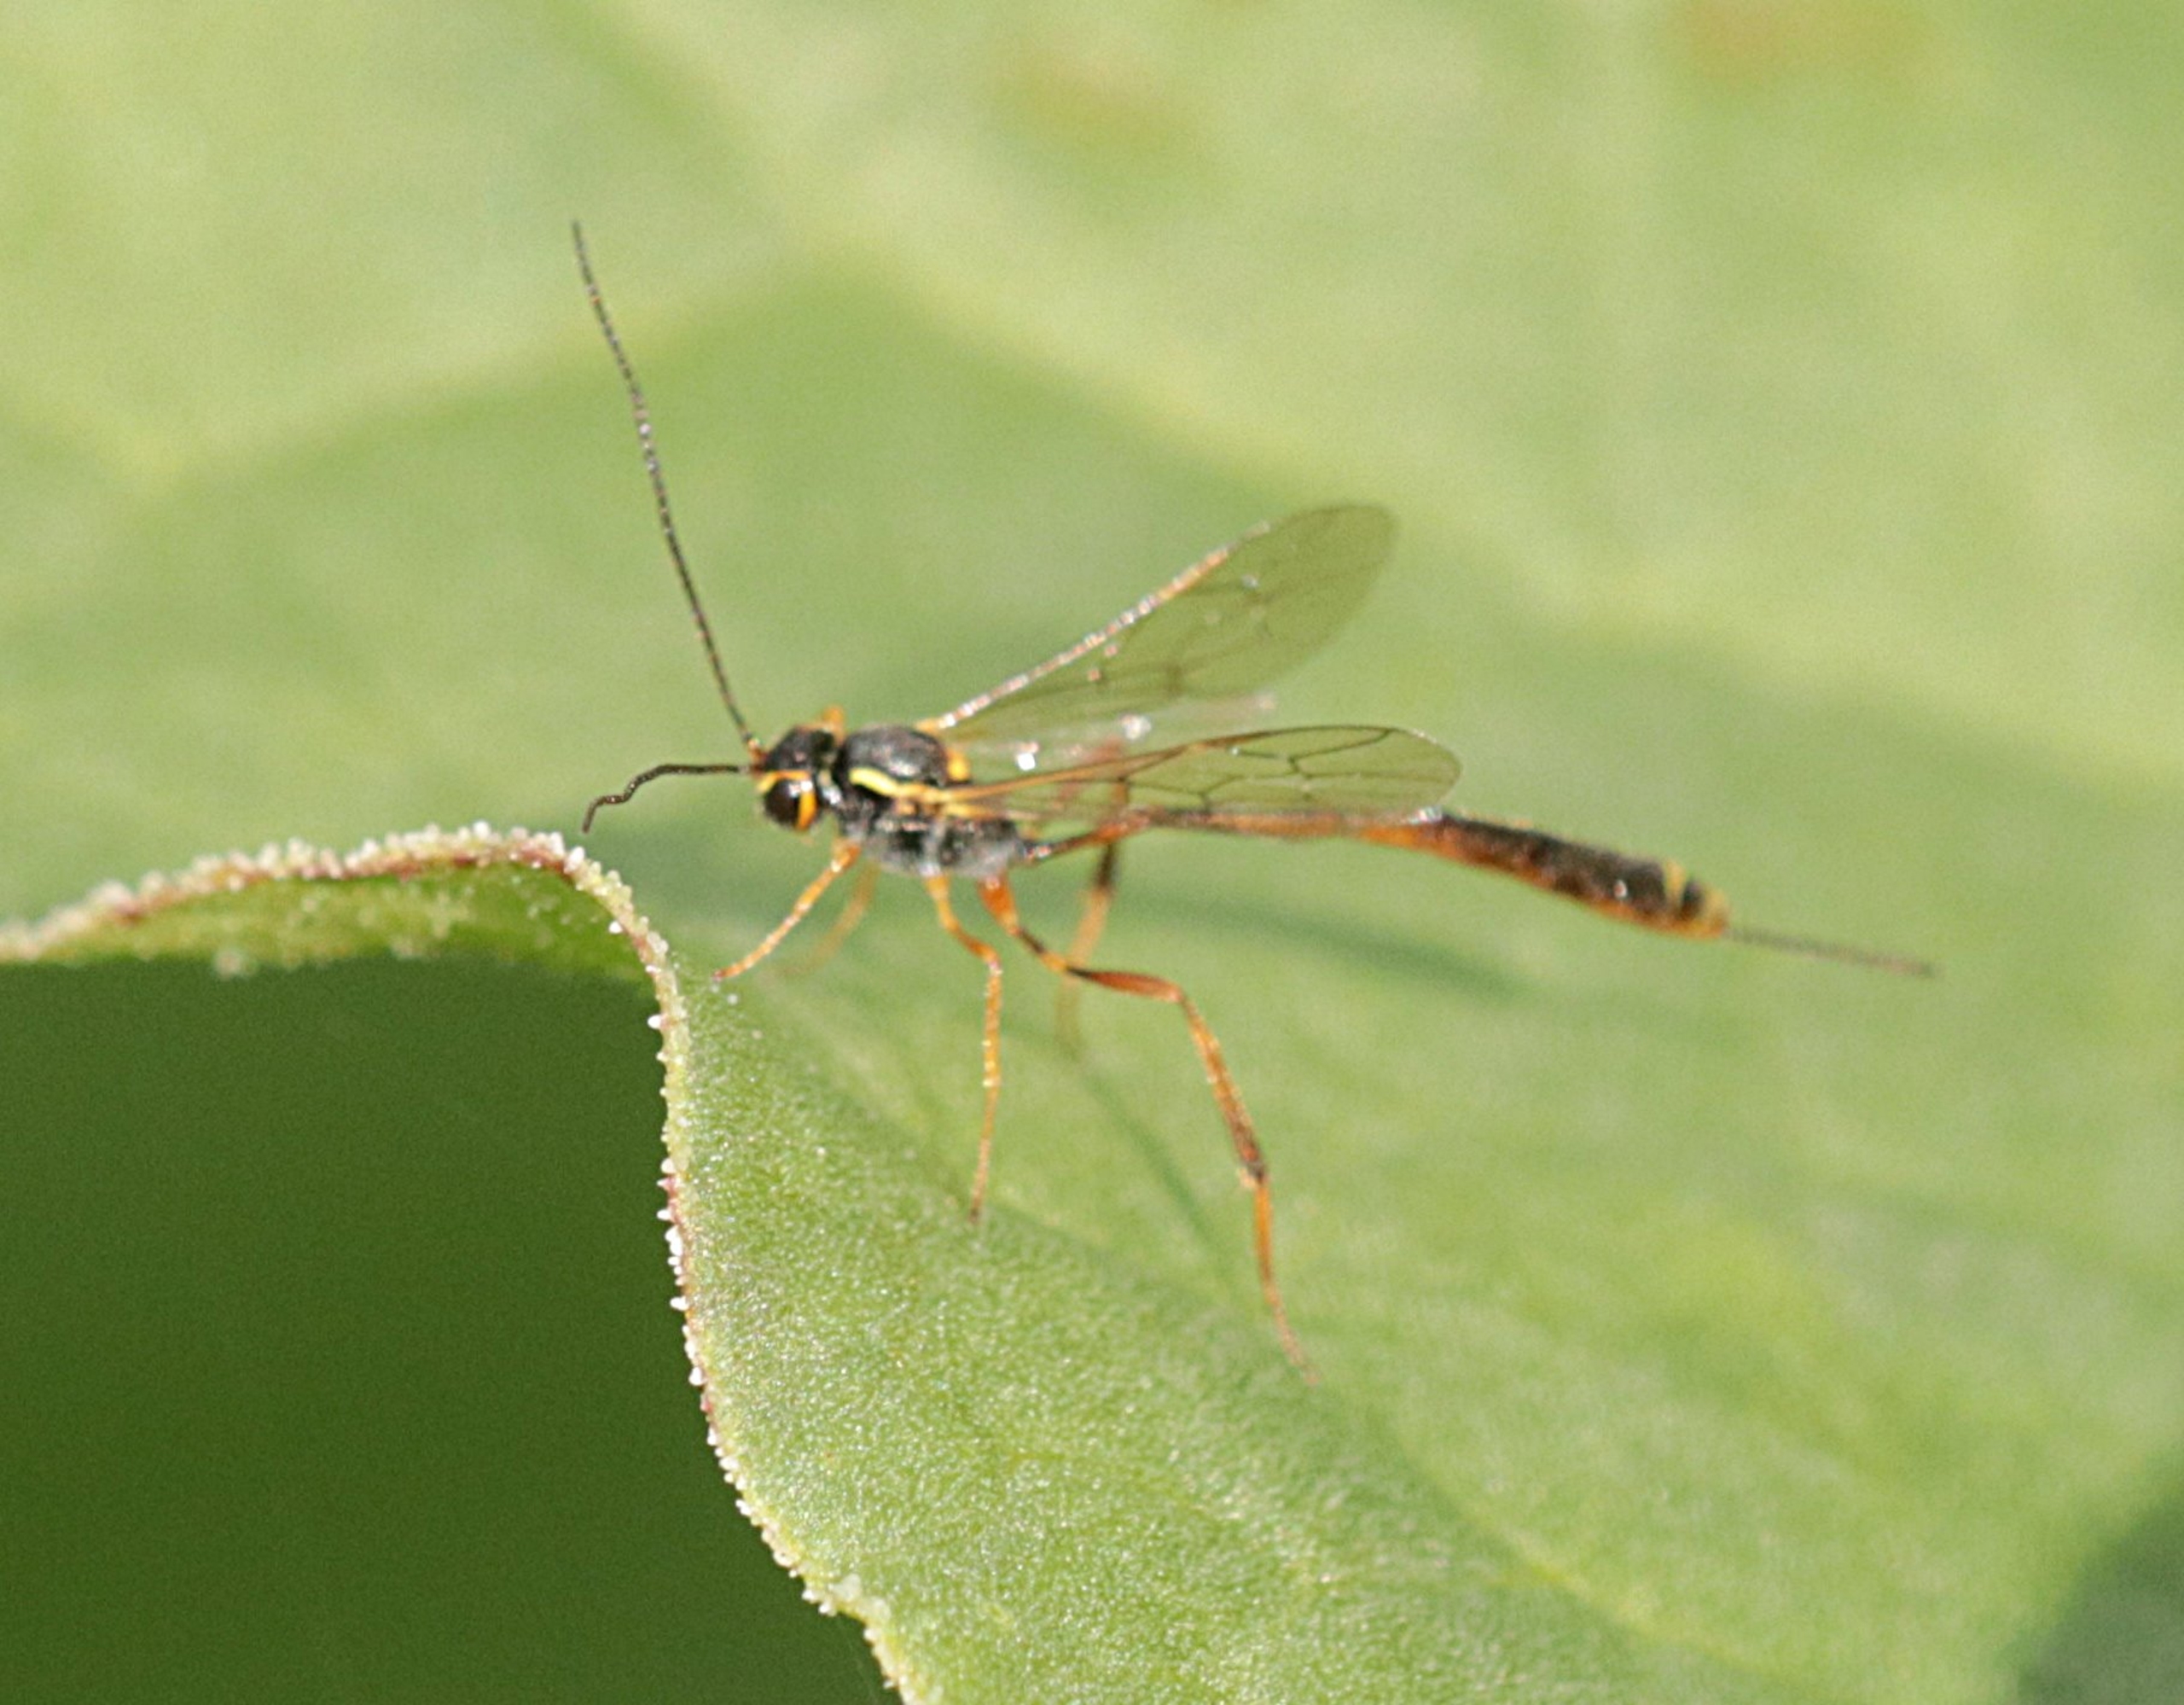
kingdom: Animalia
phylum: Arthropoda
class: Insecta
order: Hymenoptera
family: Ichneumonidae
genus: Trichomma
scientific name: Trichomma enecator
